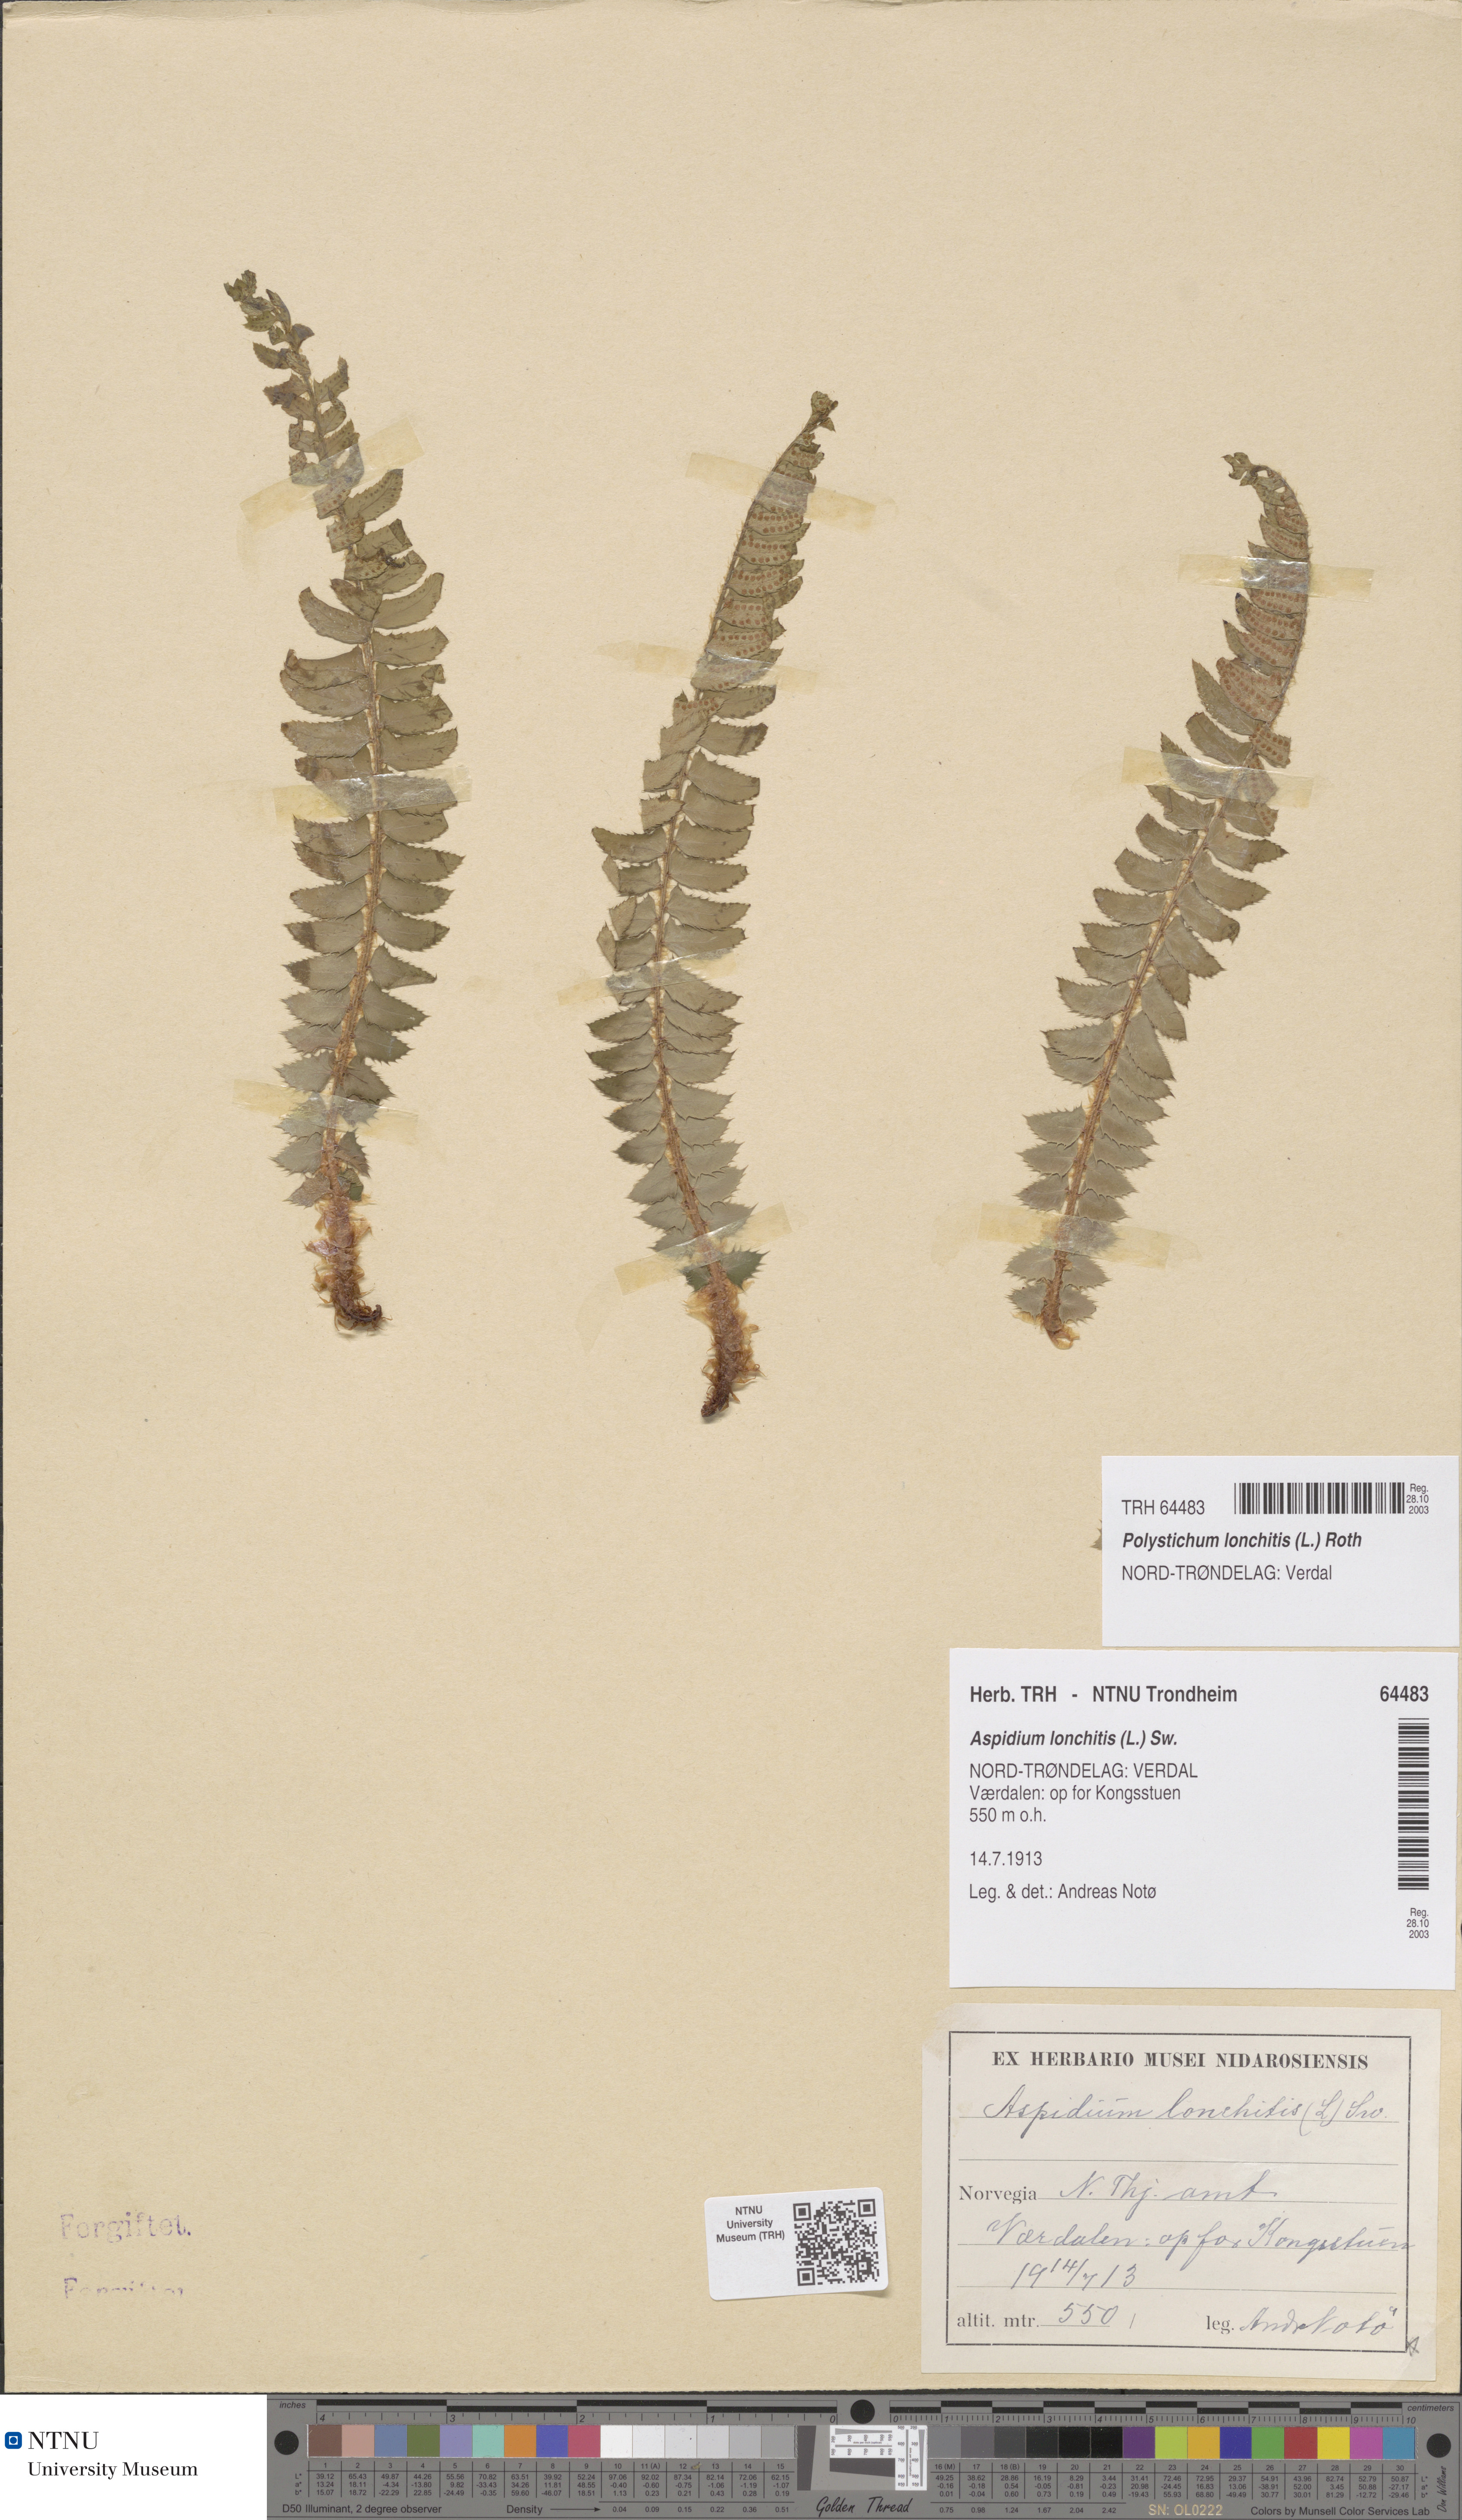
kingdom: Plantae
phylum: Tracheophyta
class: Polypodiopsida
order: Polypodiales
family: Dryopteridaceae
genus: Polystichum
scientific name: Polystichum lonchitis
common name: Holly fern
